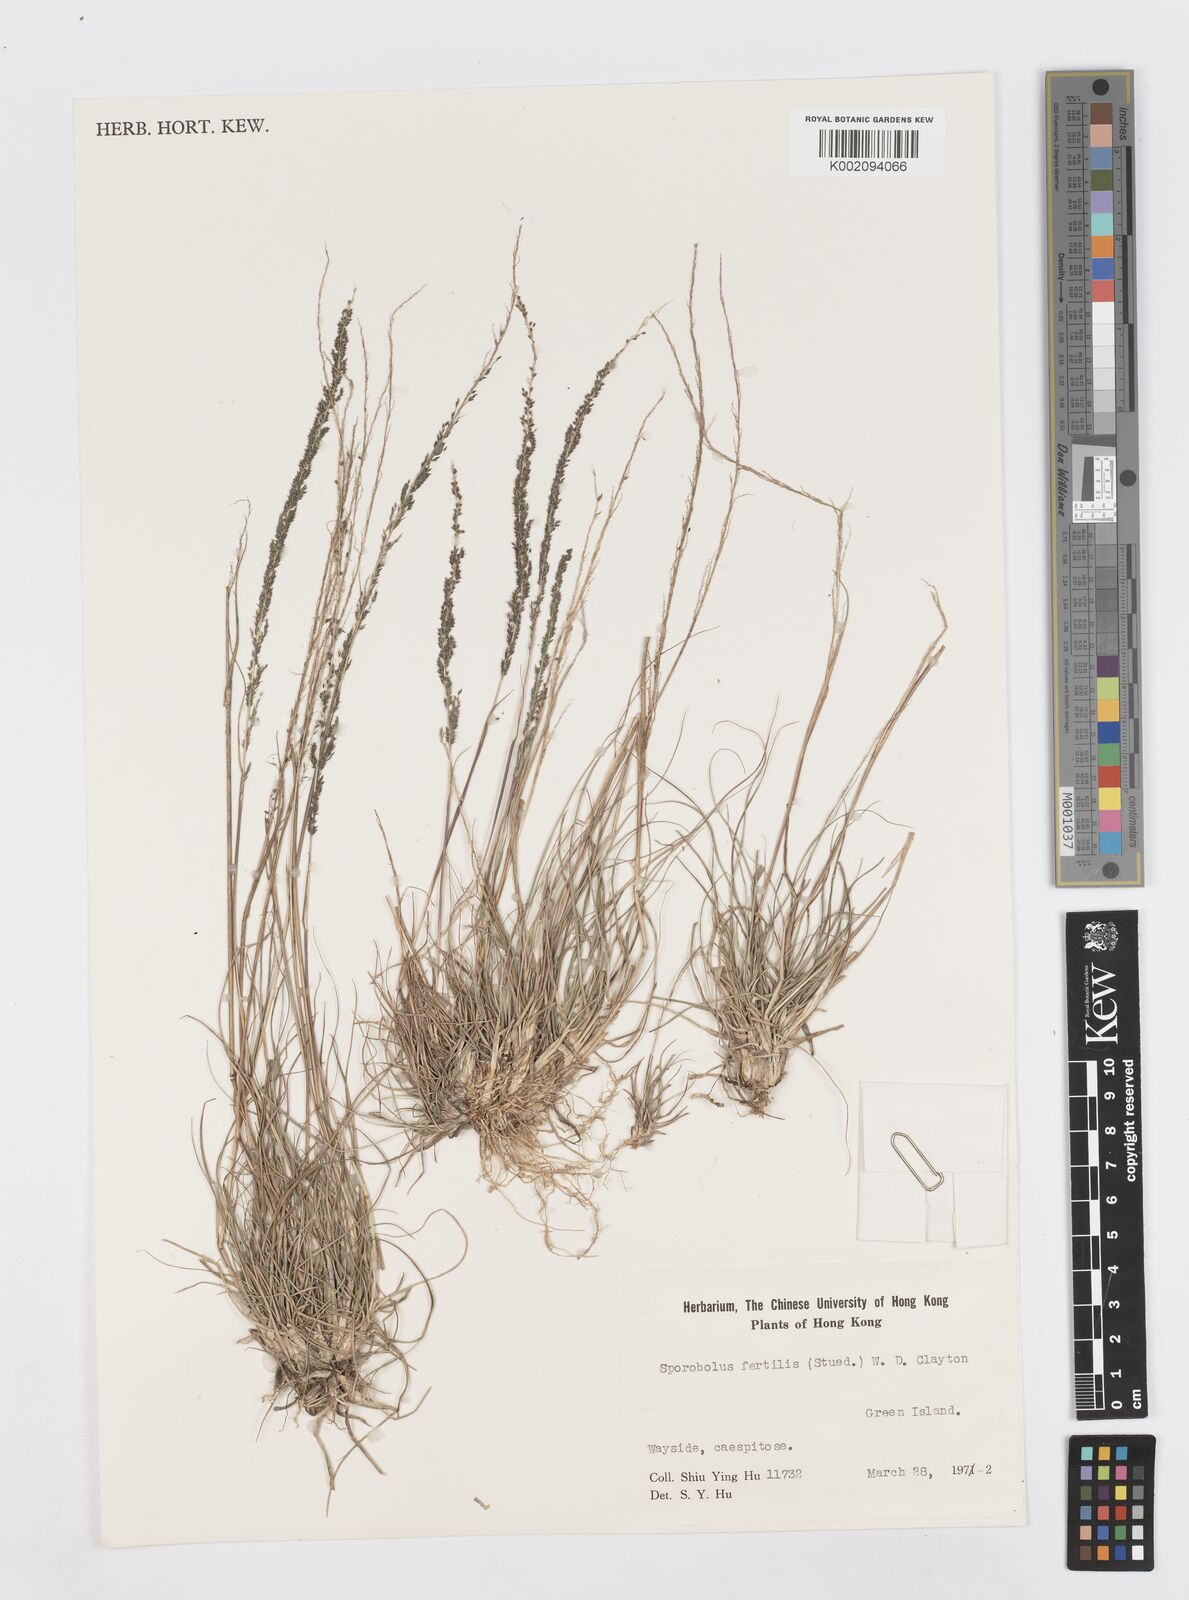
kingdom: Plantae
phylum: Tracheophyta
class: Liliopsida
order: Poales
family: Poaceae
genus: Sporobolus
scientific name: Sporobolus fertilis
